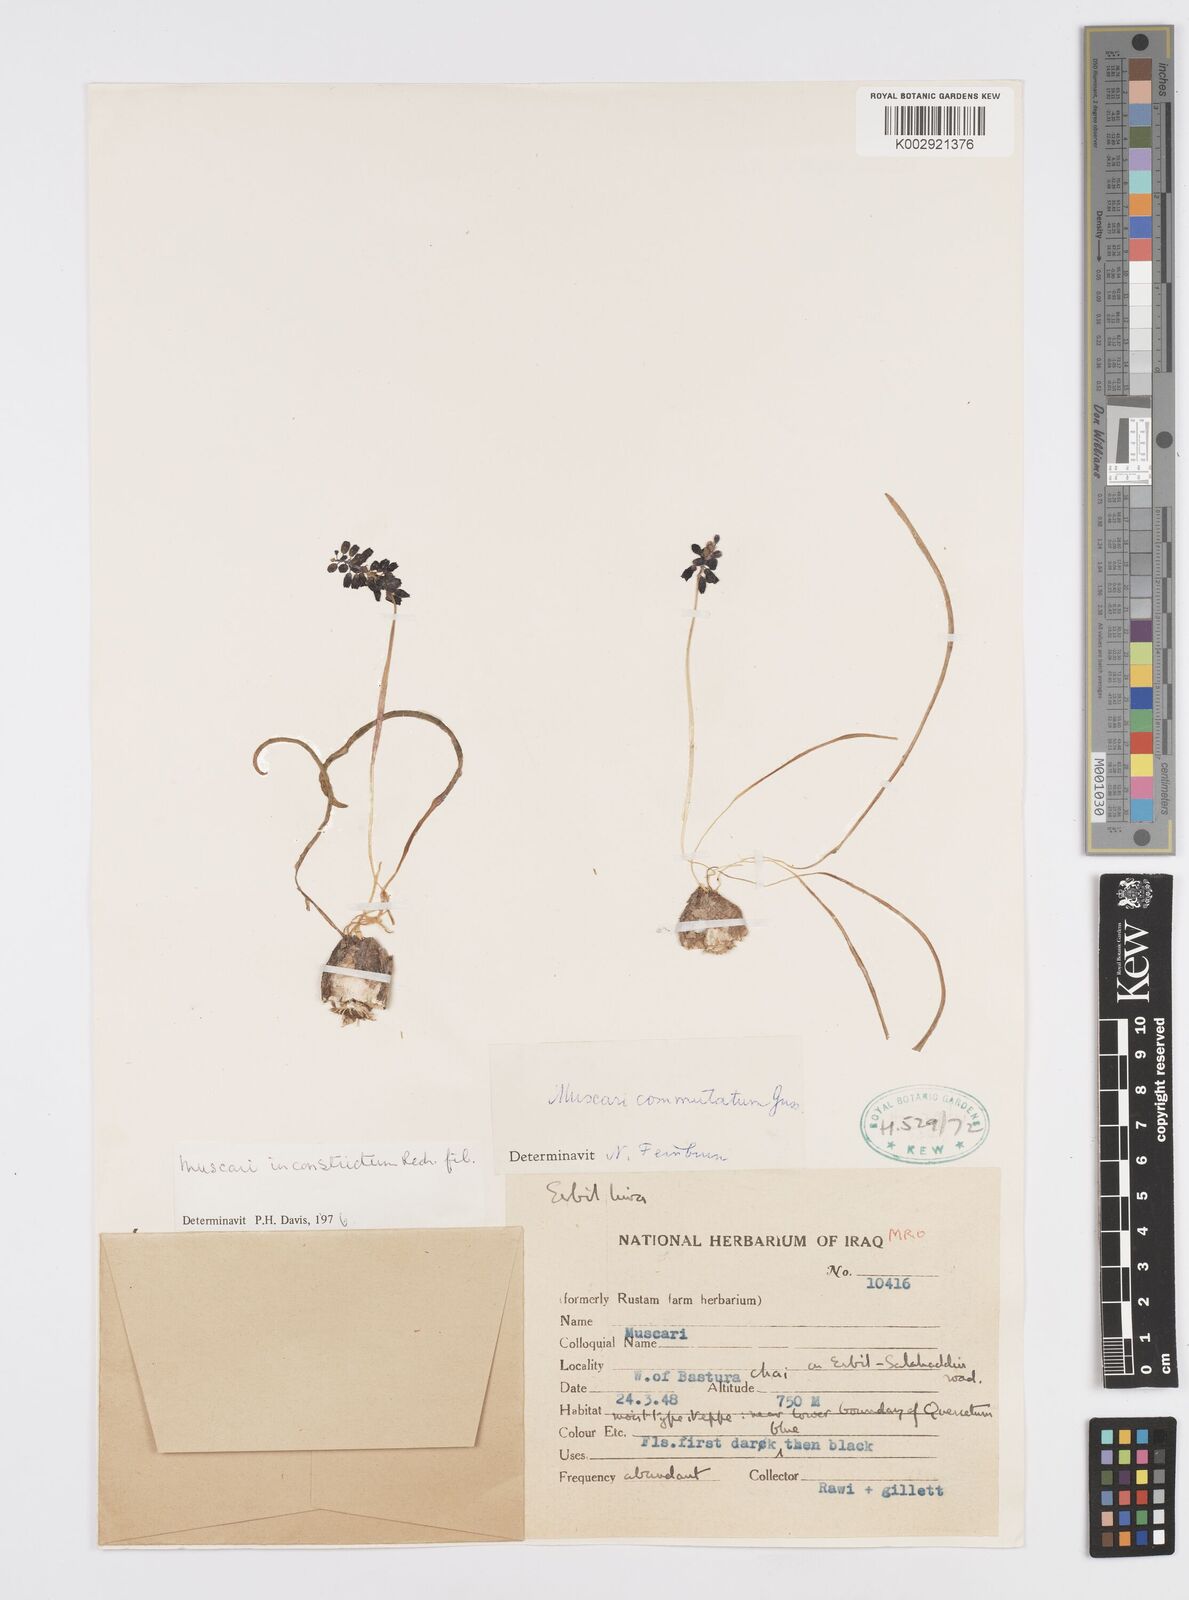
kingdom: Plantae
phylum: Tracheophyta
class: Liliopsida
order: Asparagales
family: Asparagaceae
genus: Muscari
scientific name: Muscari inconstrictum
